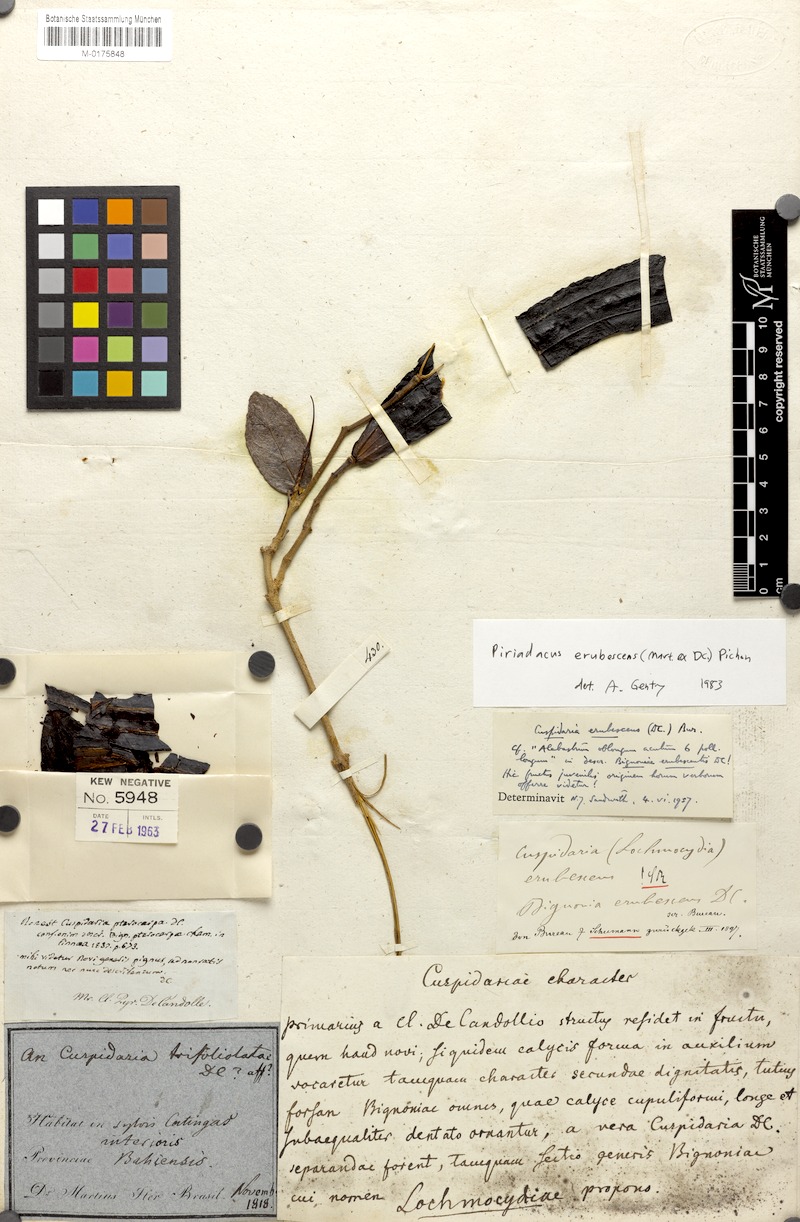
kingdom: Plantae
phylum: Tracheophyta
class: Magnoliopsida
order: Lamiales
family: Bignoniaceae
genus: Fridericia
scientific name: Fridericia erubescens
